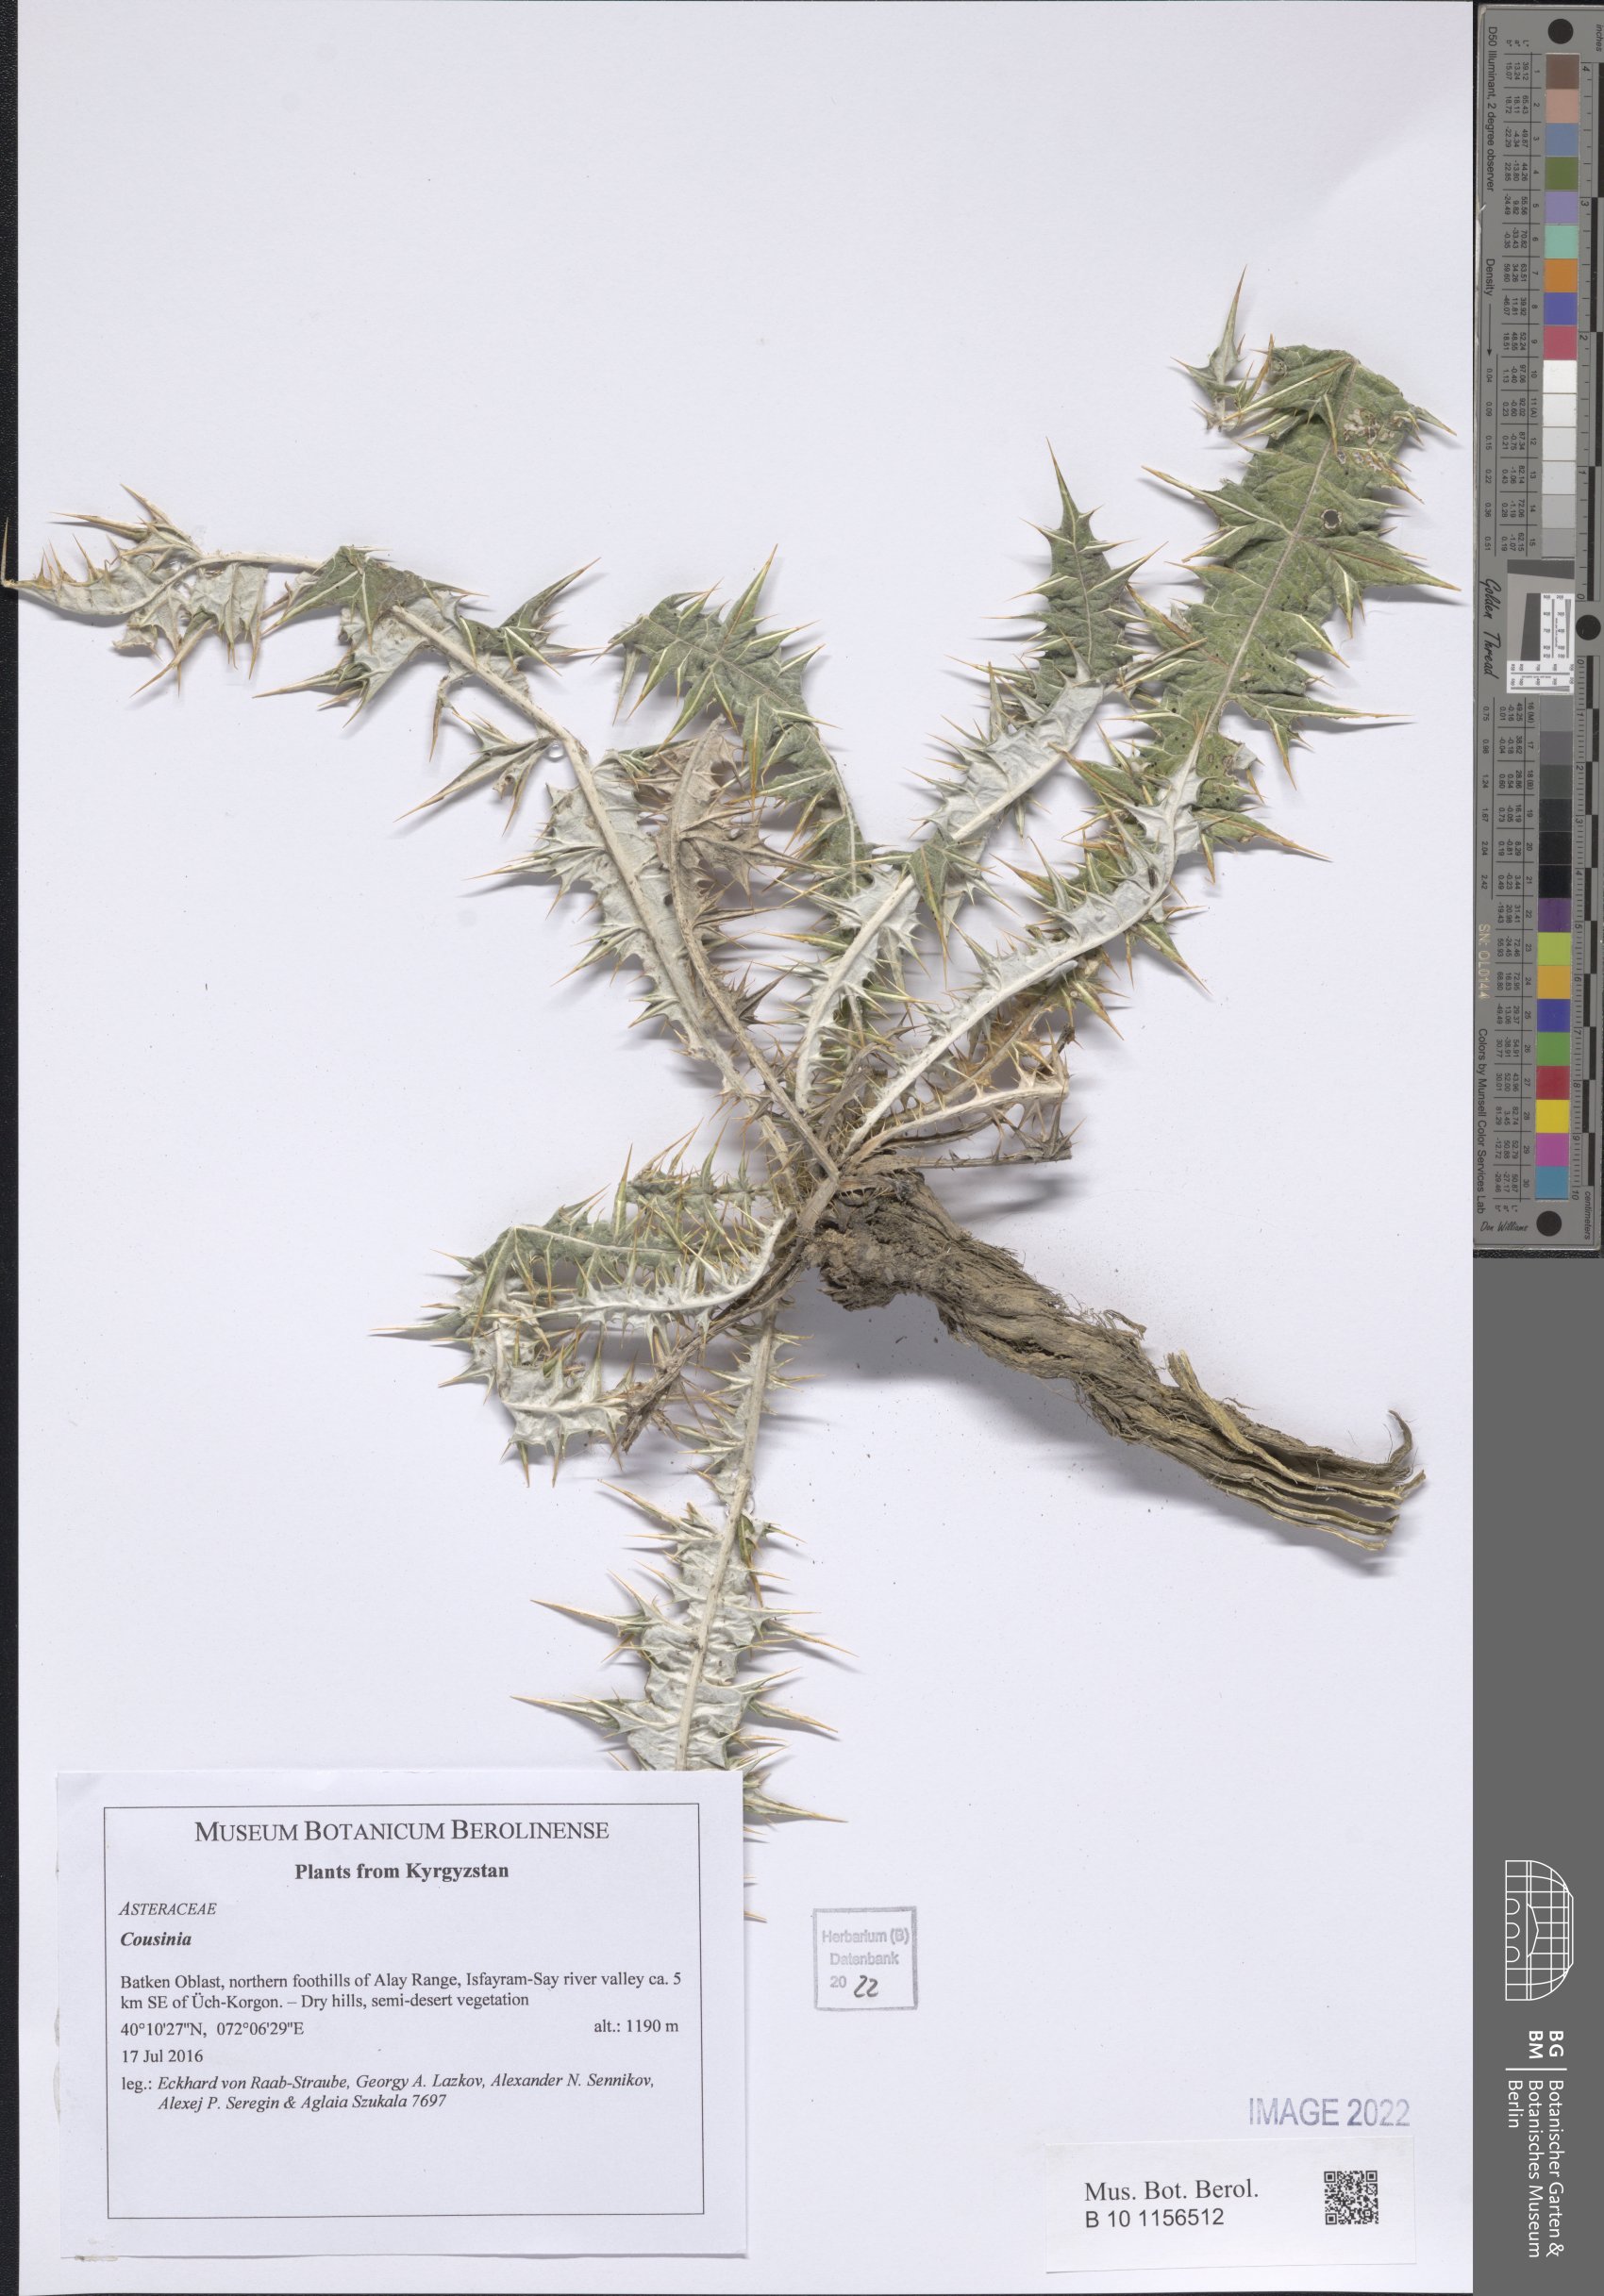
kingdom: Plantae
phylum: Tracheophyta
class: Magnoliopsida
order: Asterales
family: Asteraceae
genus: Cousinia
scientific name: Cousinia
